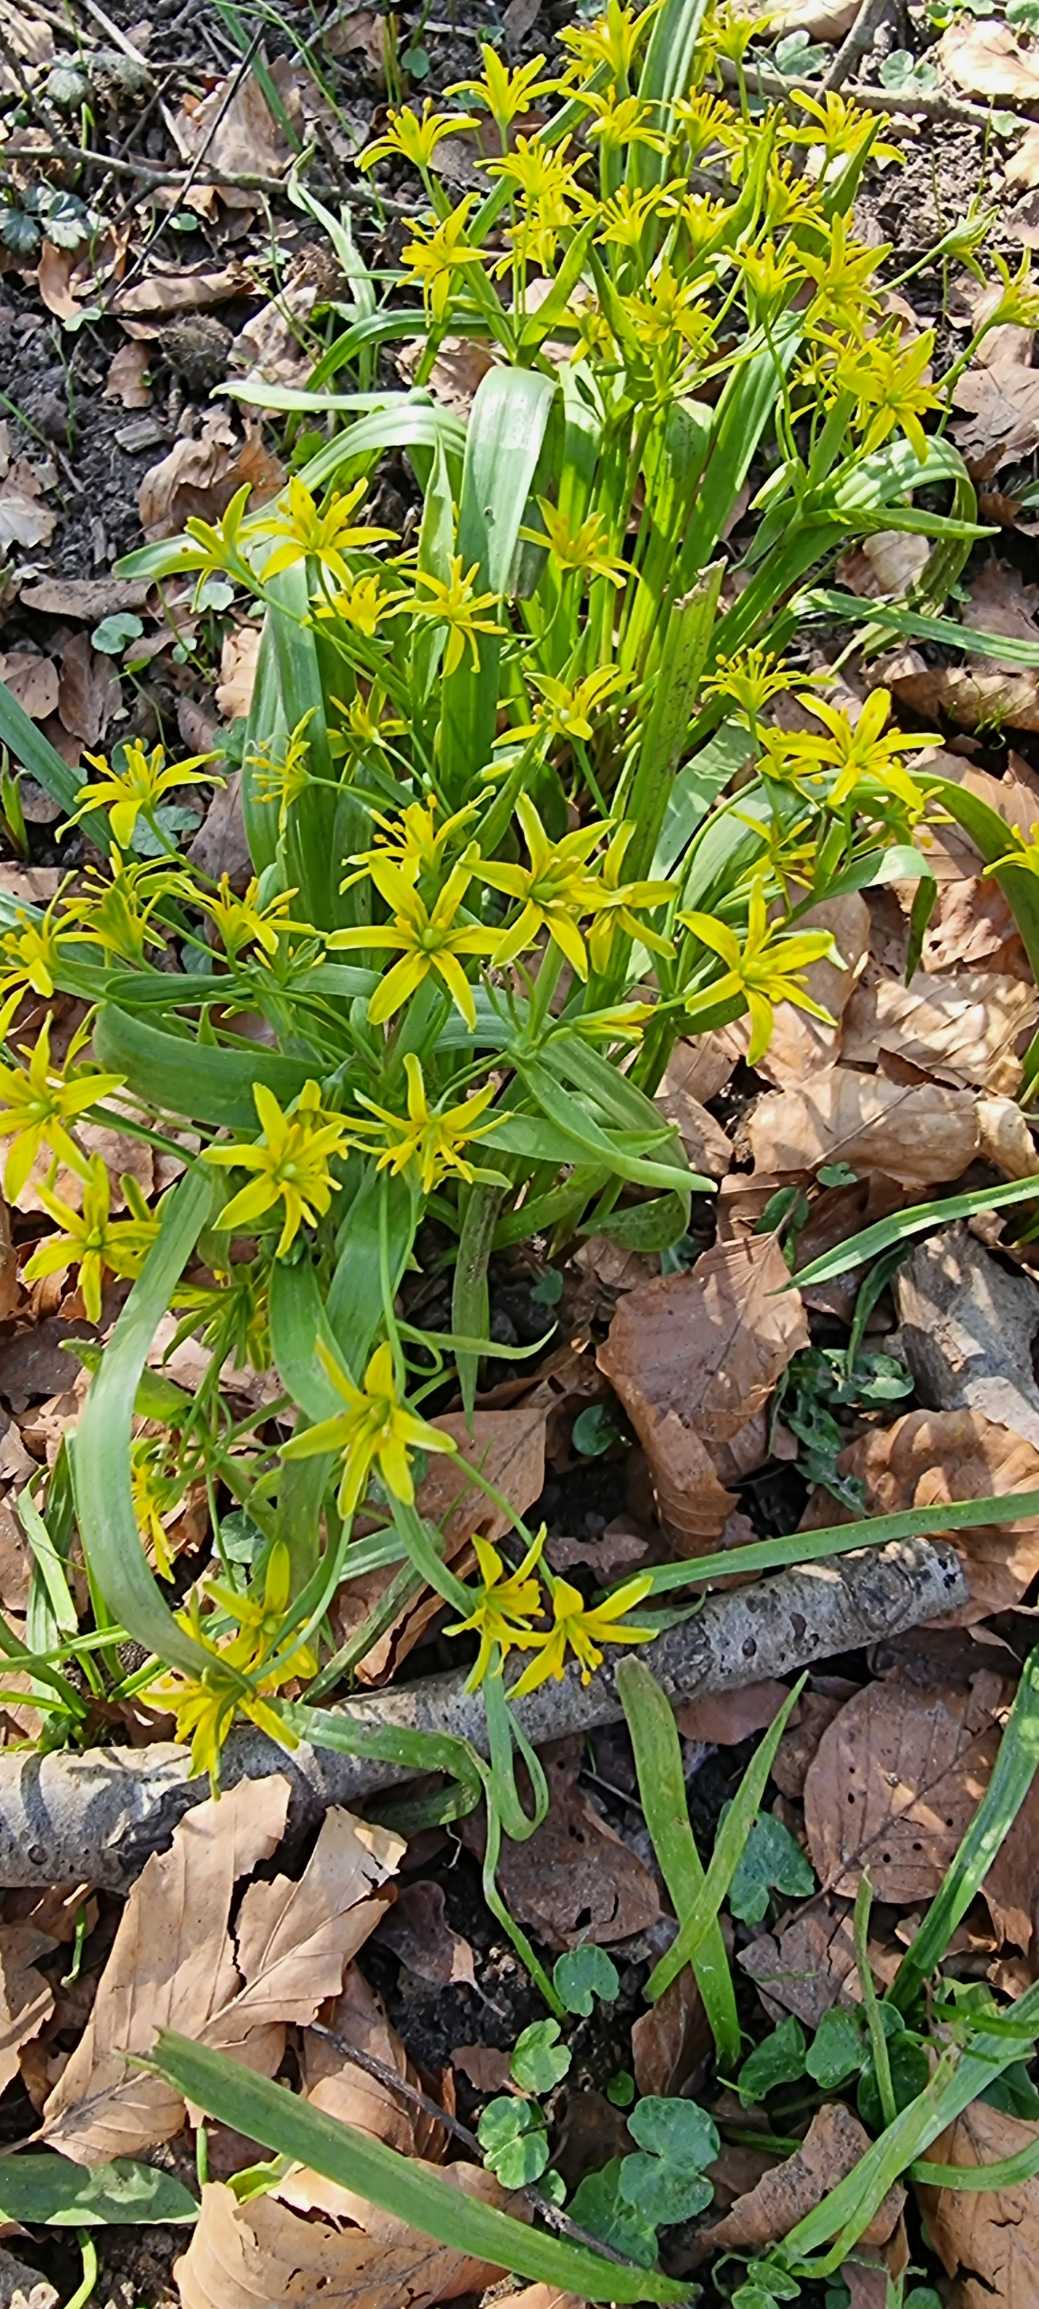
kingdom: Plantae
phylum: Tracheophyta
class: Liliopsida
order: Liliales
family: Liliaceae
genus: Gagea
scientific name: Gagea lutea
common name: Almindelig guldstjerne
